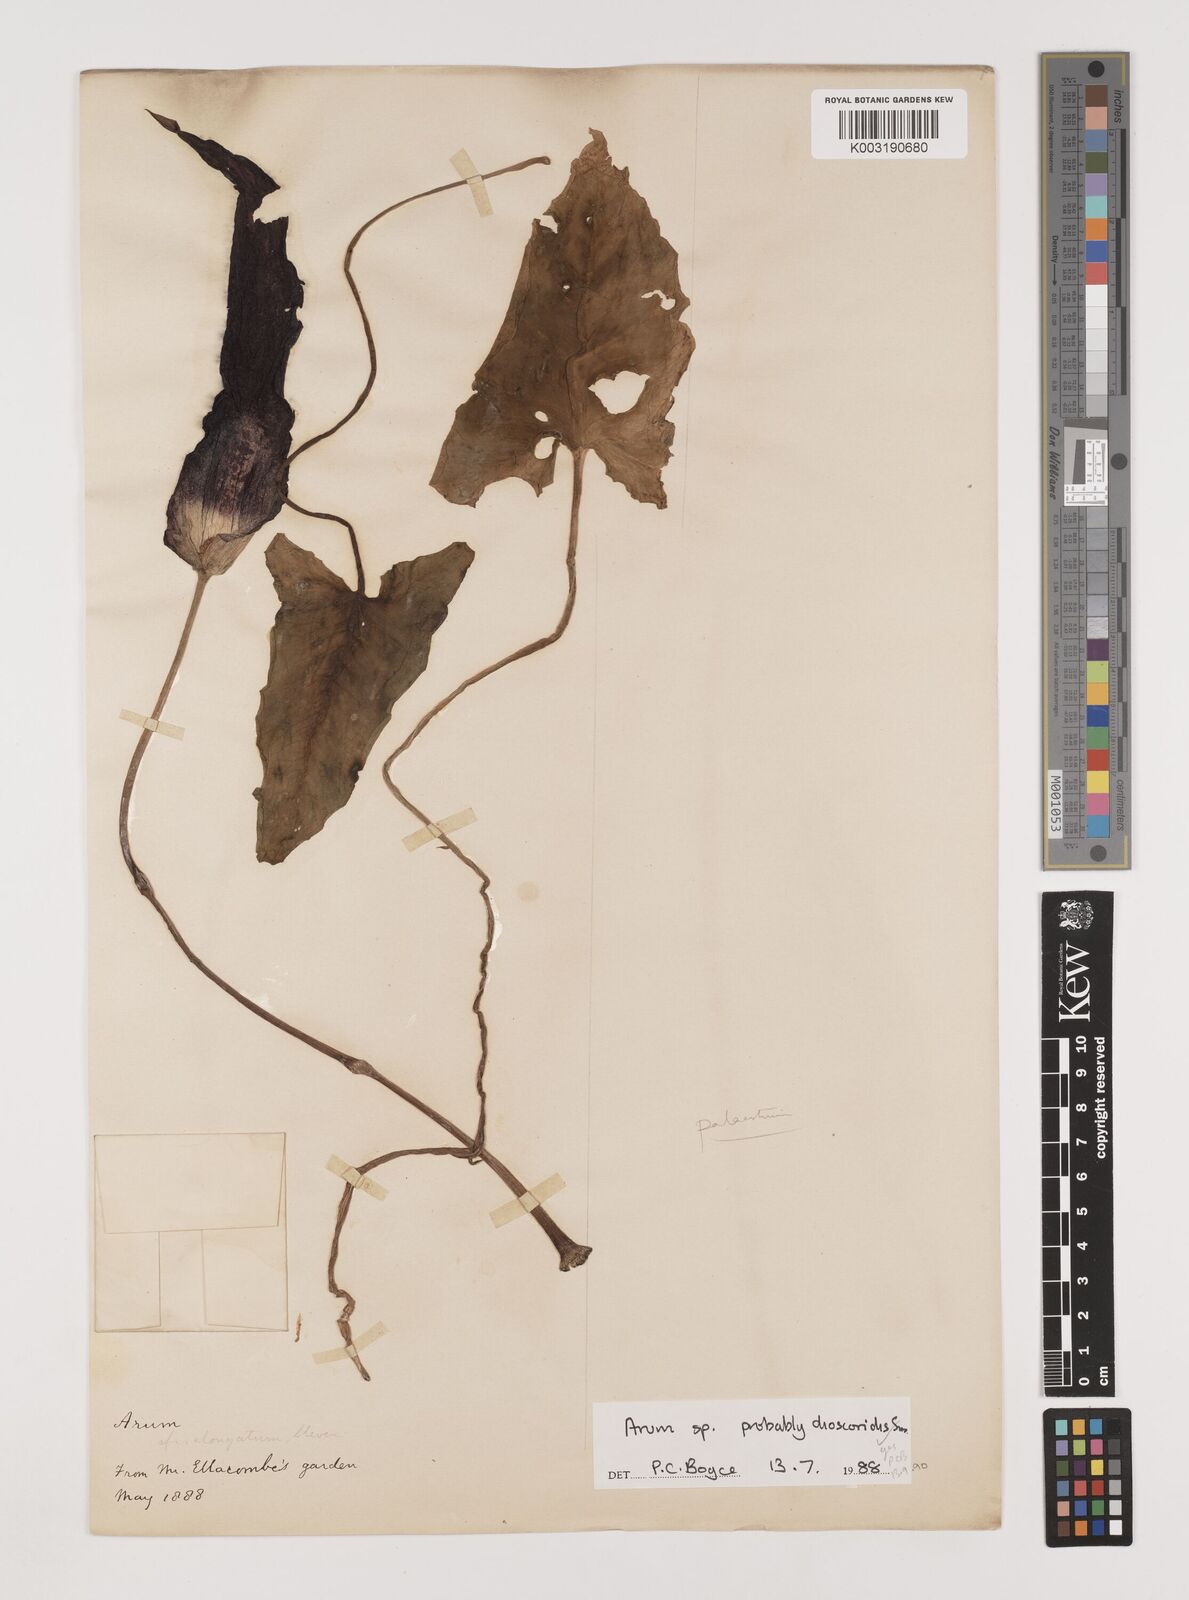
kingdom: Plantae
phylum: Tracheophyta
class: Liliopsida
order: Alismatales
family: Araceae
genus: Arum
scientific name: Arum dioscoridis
